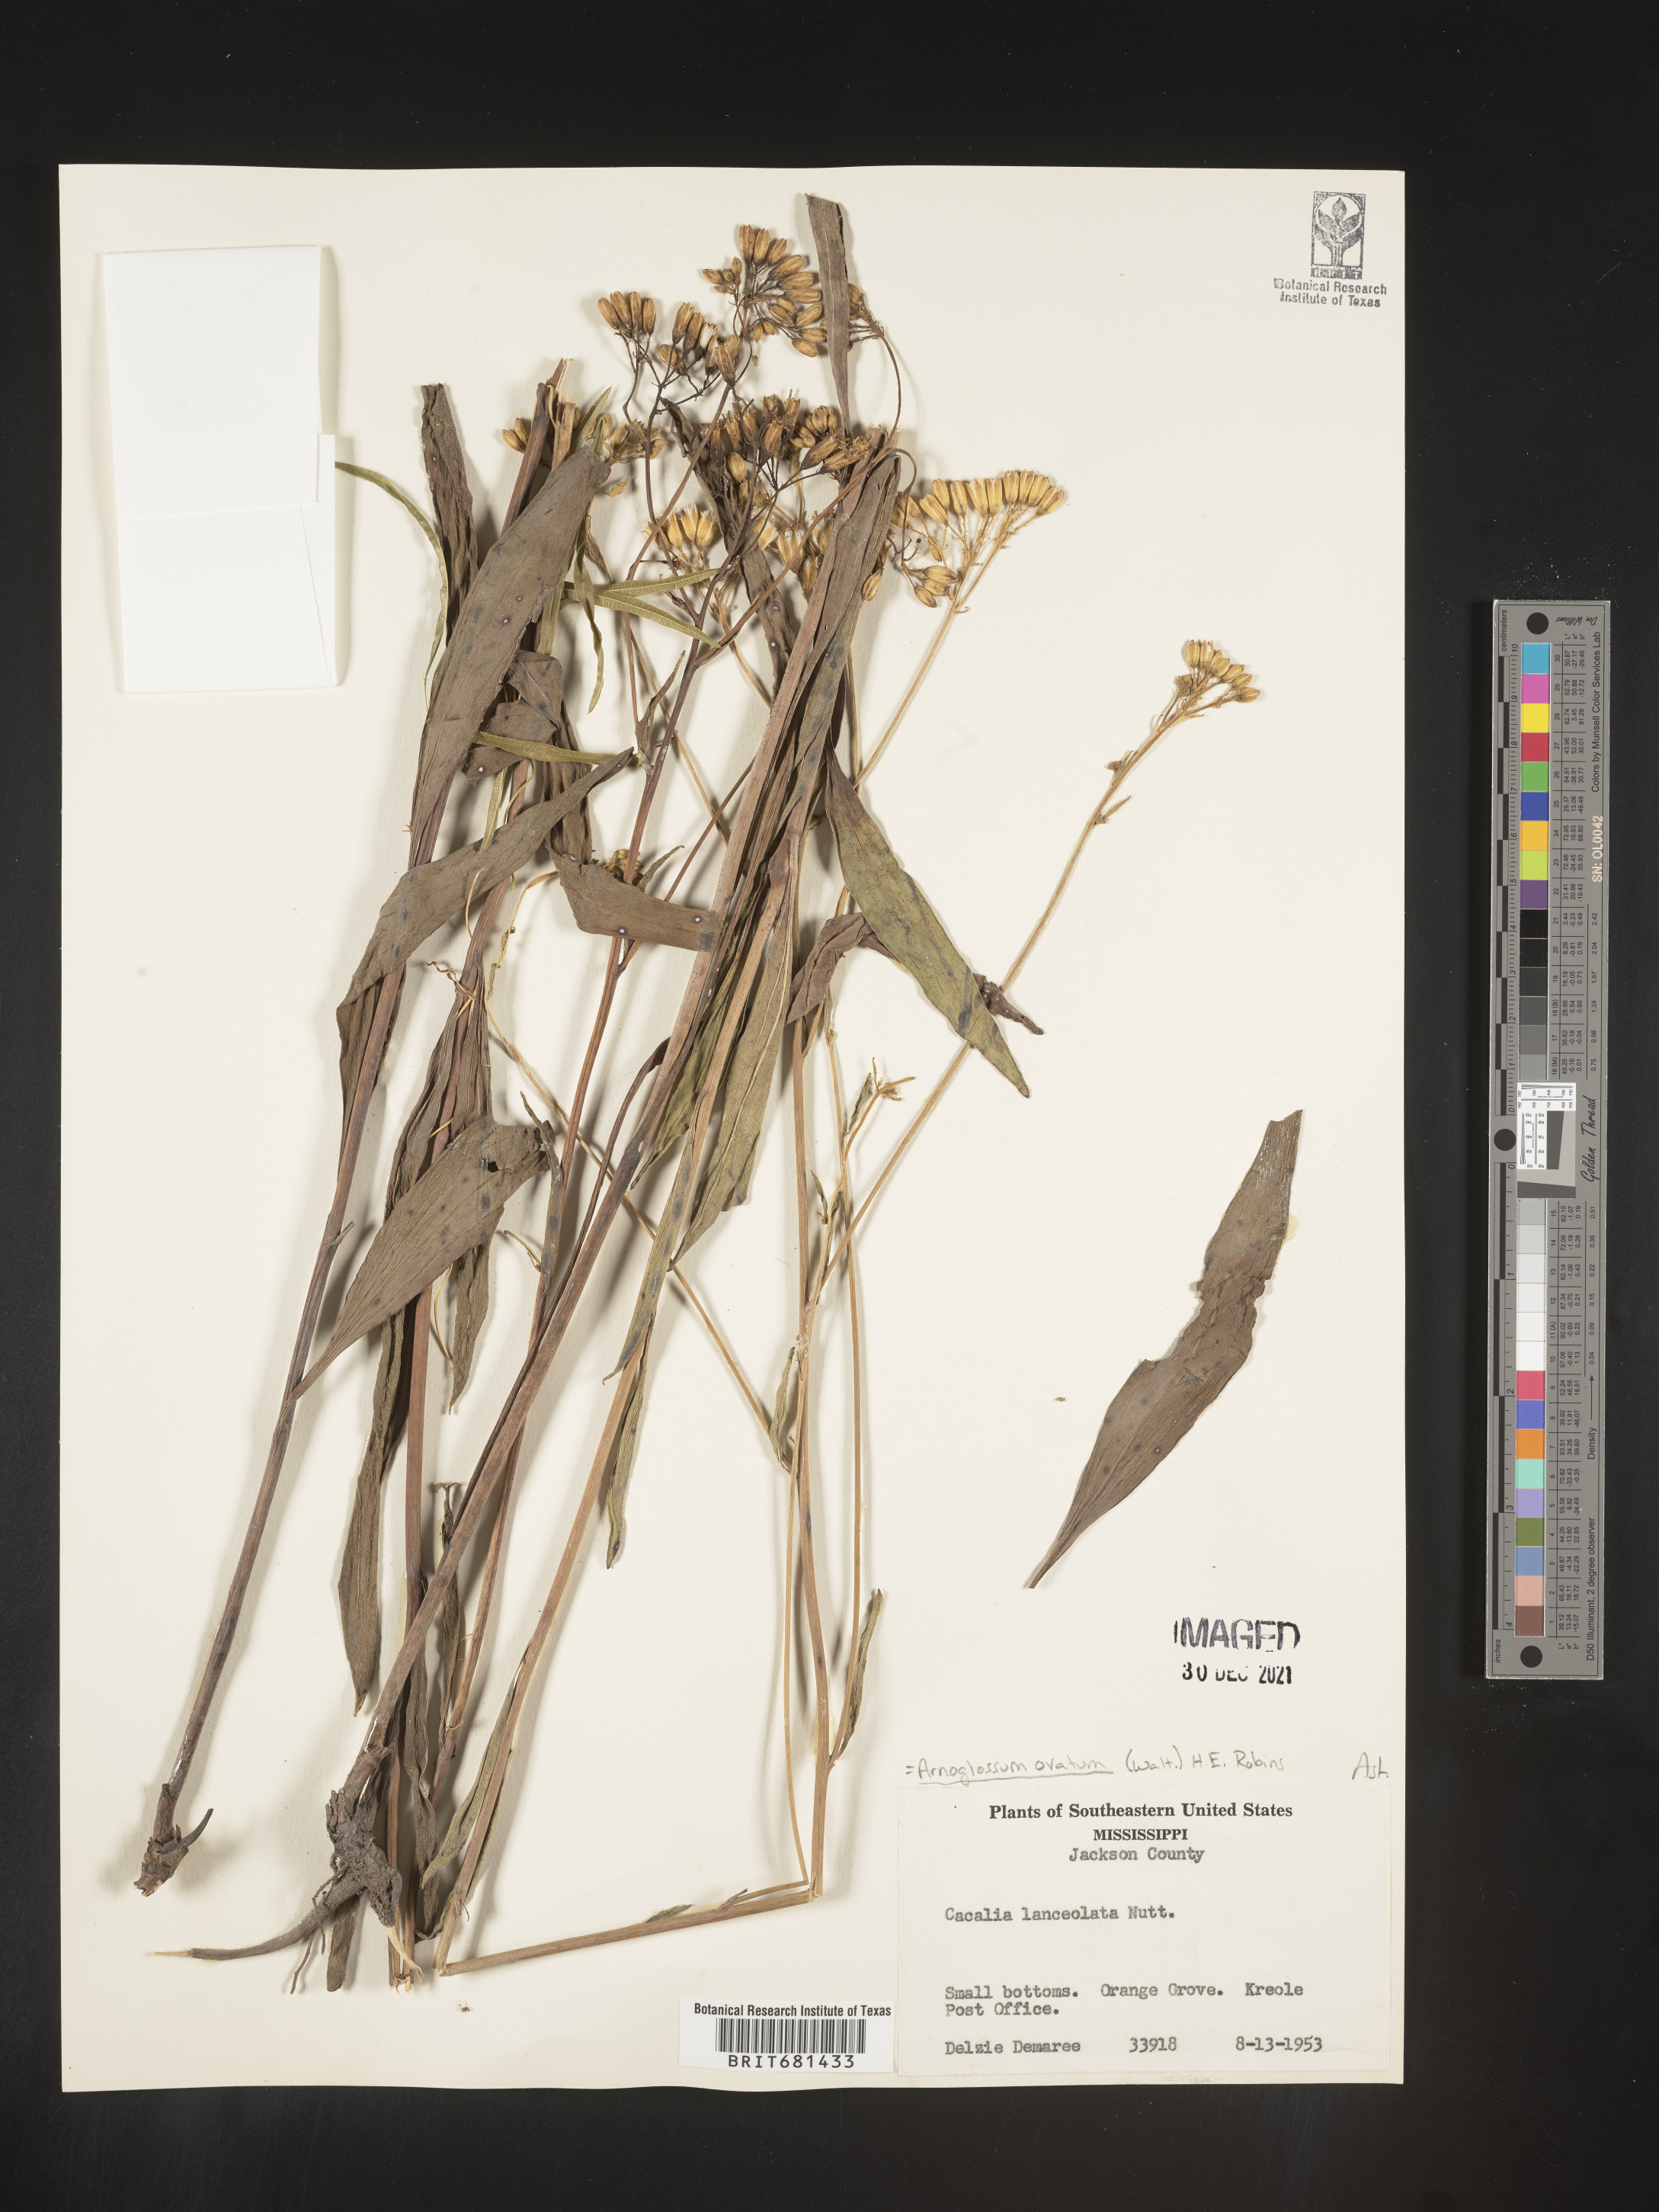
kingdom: Plantae
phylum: Tracheophyta
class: Magnoliopsida
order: Asterales
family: Asteraceae
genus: Arnoglossum
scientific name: Arnoglossum ovatum
